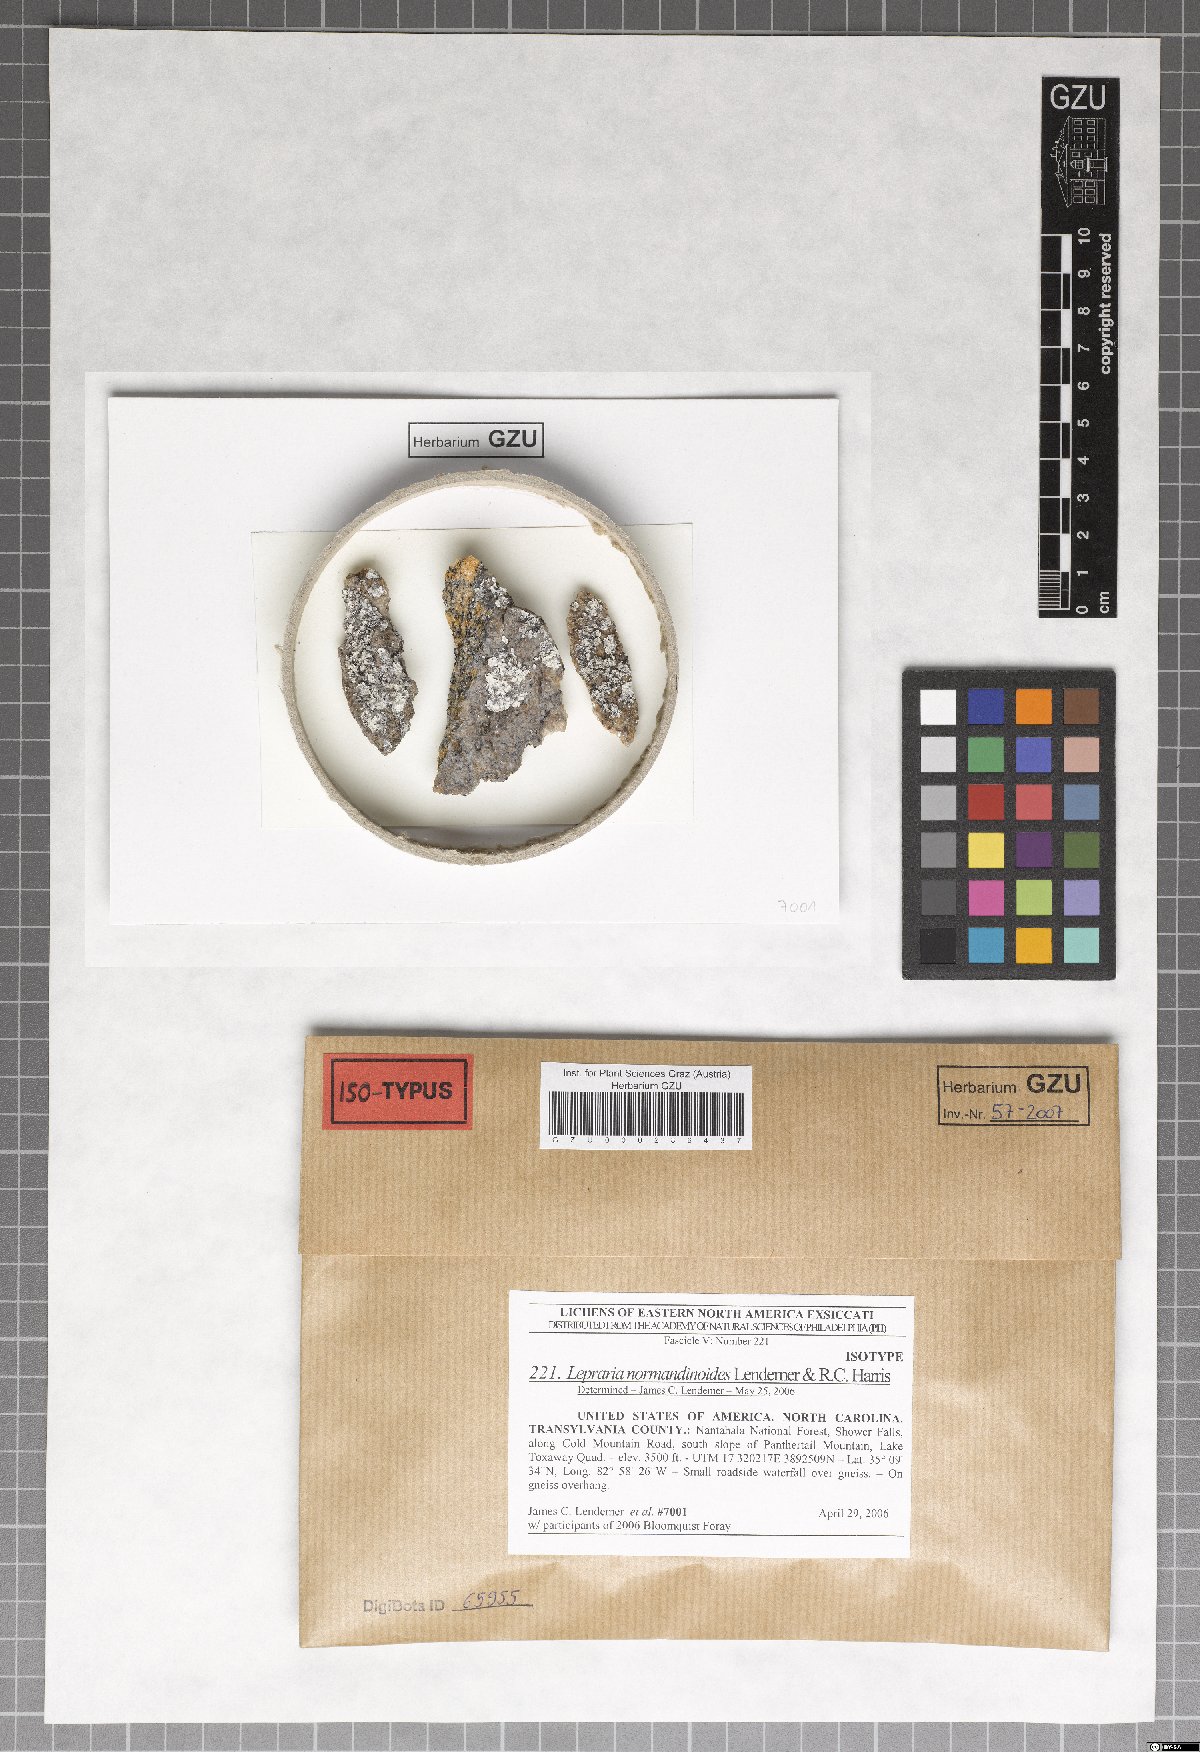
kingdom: Fungi
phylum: Ascomycota
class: Lecanoromycetes
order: Lecanorales
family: Stereocaulaceae
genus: Lepraria
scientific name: Lepraria normandinoides
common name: Elf-ear dust
